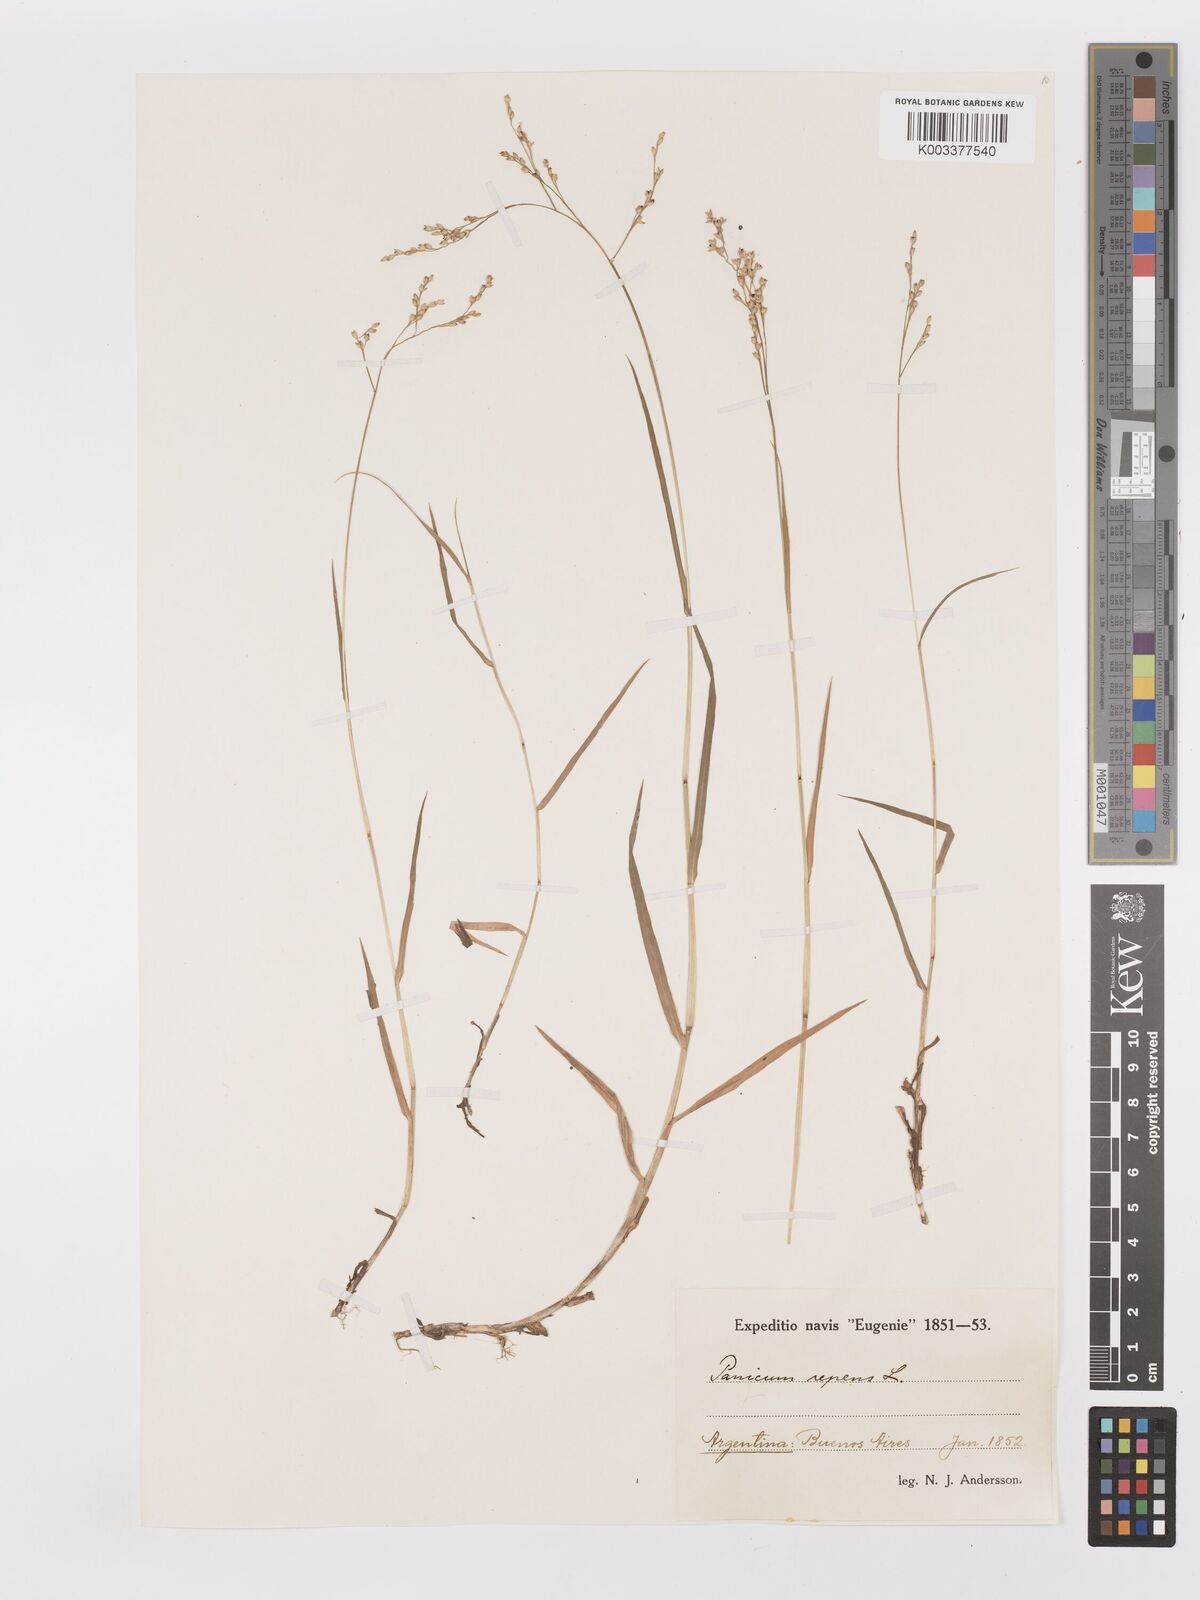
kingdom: Plantae
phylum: Tracheophyta
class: Liliopsida
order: Poales
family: Poaceae
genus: Panicum
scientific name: Panicum repens
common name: Torpedo grass
